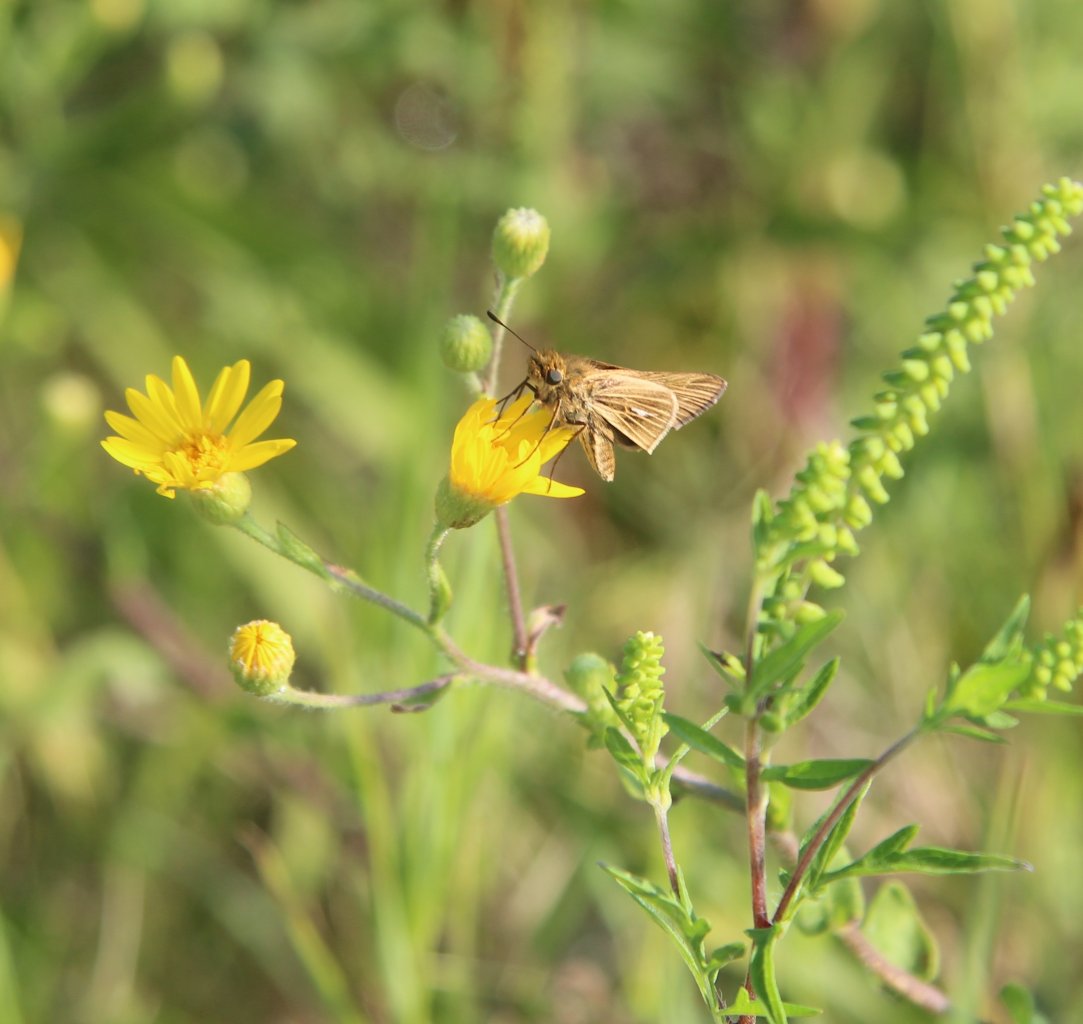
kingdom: Animalia
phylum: Arthropoda
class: Insecta
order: Lepidoptera
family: Hesperiidae
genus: Panoquina
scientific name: Panoquina panoquin
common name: Salt Marsh Skipper
